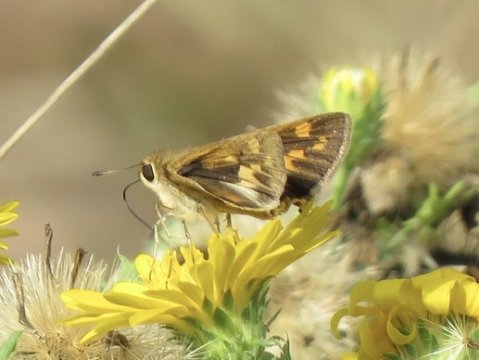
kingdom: Animalia
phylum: Arthropoda
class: Insecta
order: Lepidoptera
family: Hesperiidae
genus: Hylephila
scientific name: Hylephila phyleus
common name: Fiery Skipper
